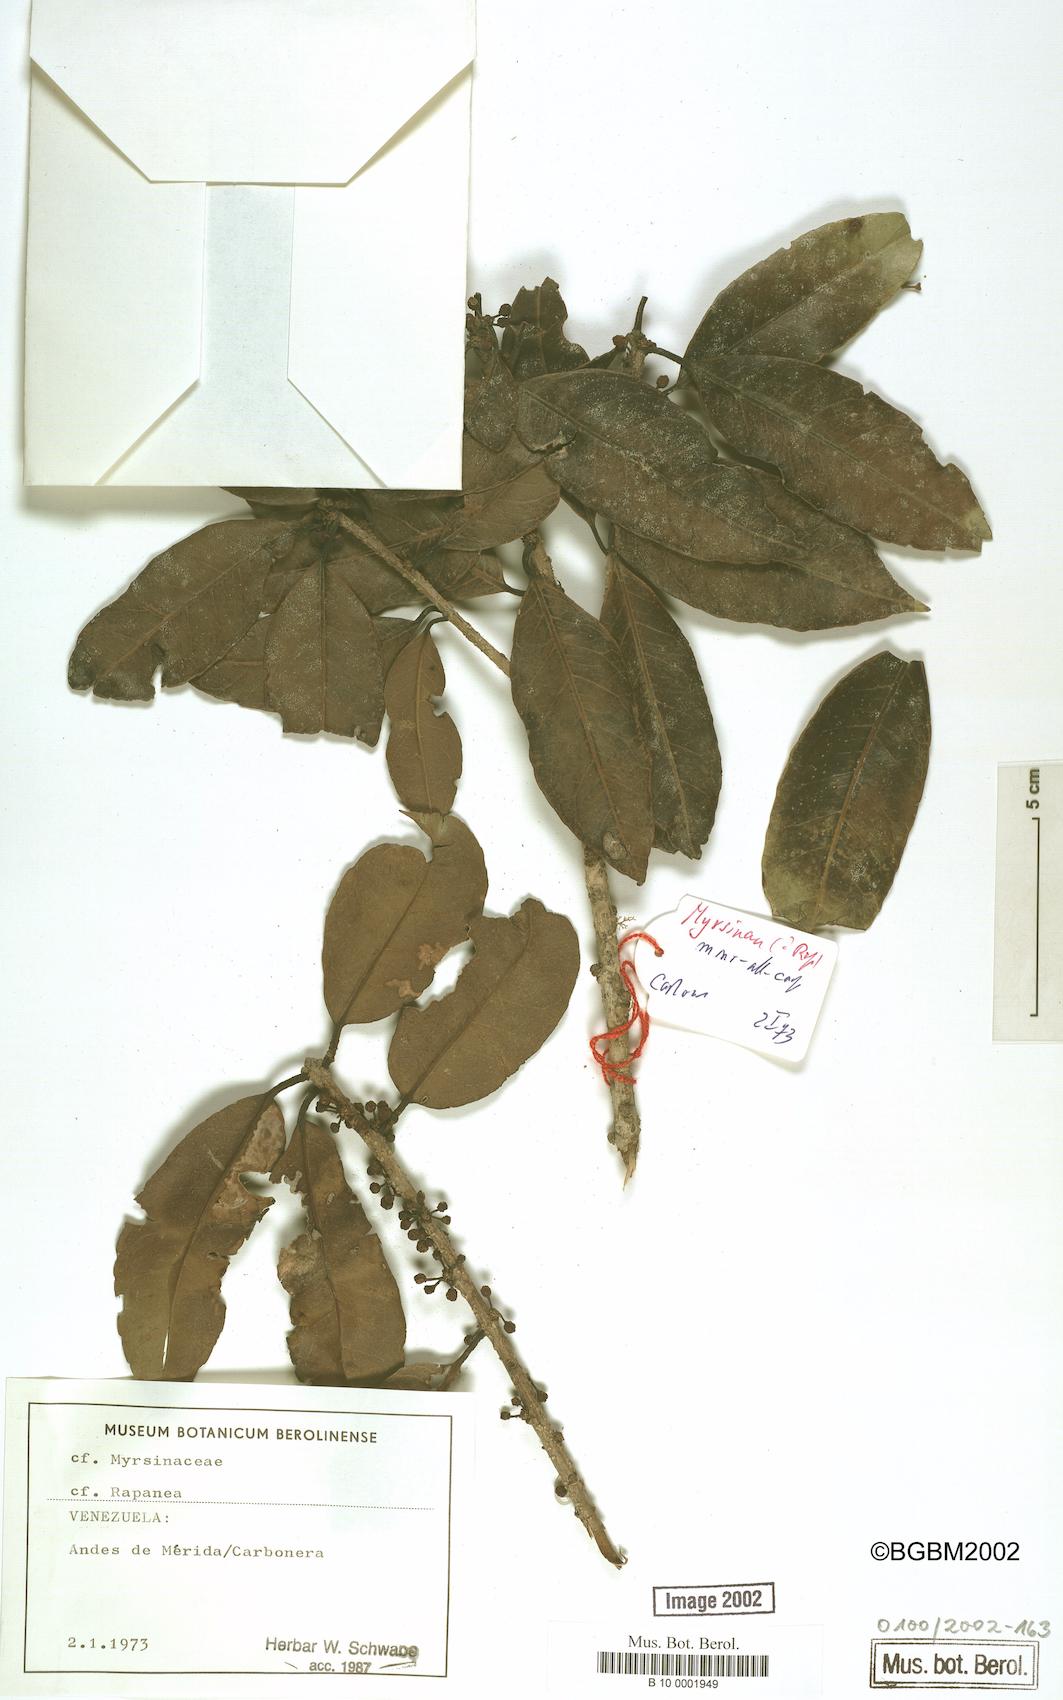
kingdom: Plantae
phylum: Tracheophyta
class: Magnoliopsida
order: Ericales
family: Primulaceae
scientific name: Primulaceae
